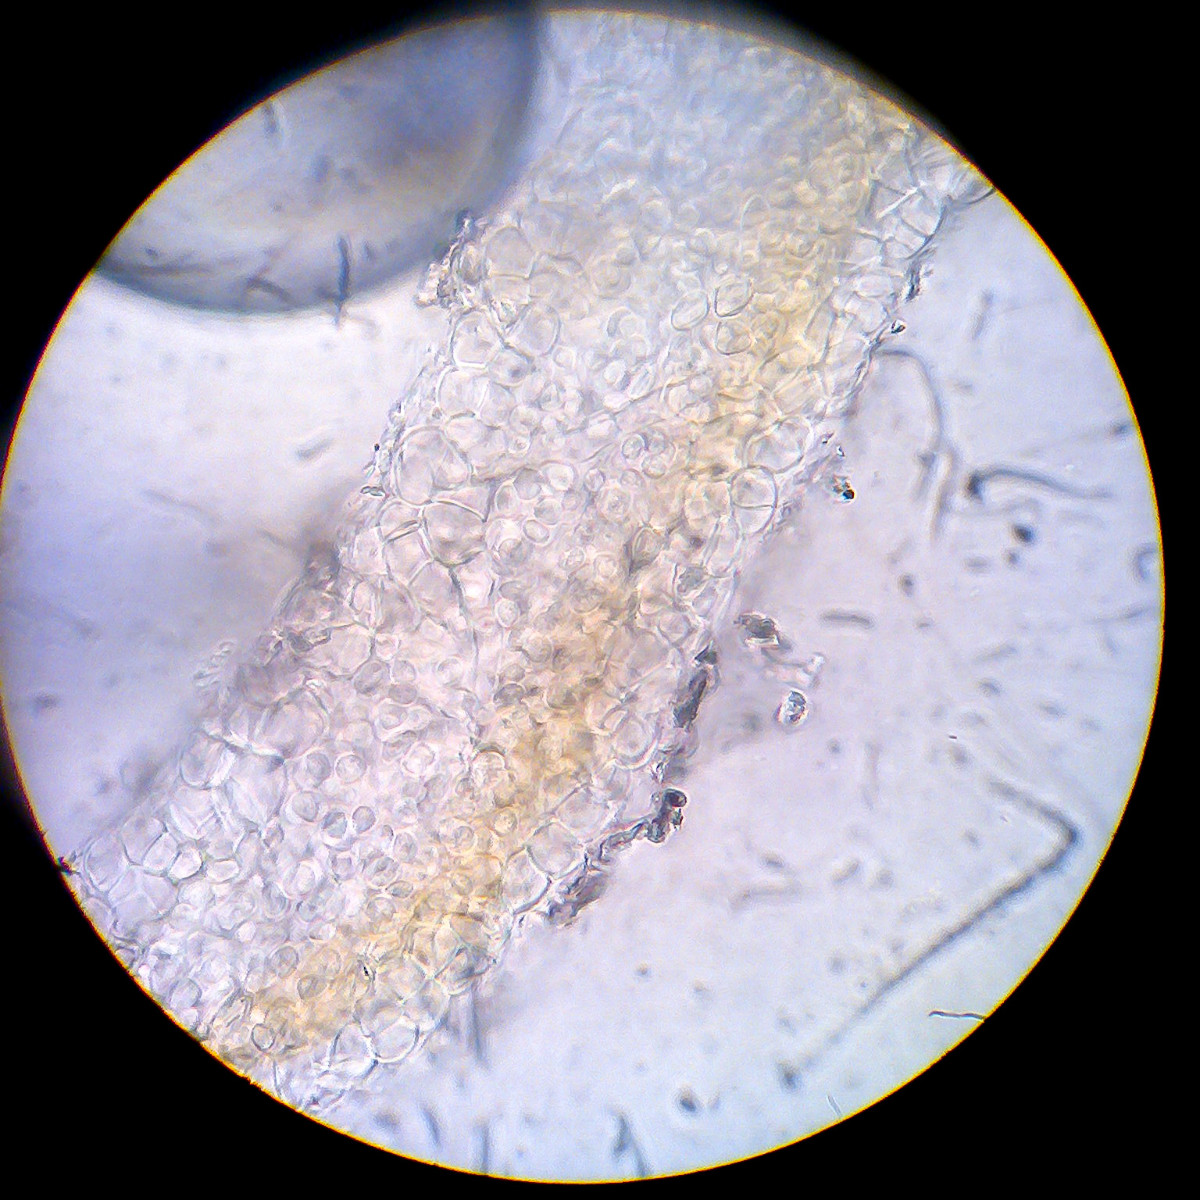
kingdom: Fungi
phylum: Ascomycota
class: Lecanoromycetes
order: Peltigerales
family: Collemataceae
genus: Scytinium
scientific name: Scytinium intermedium
